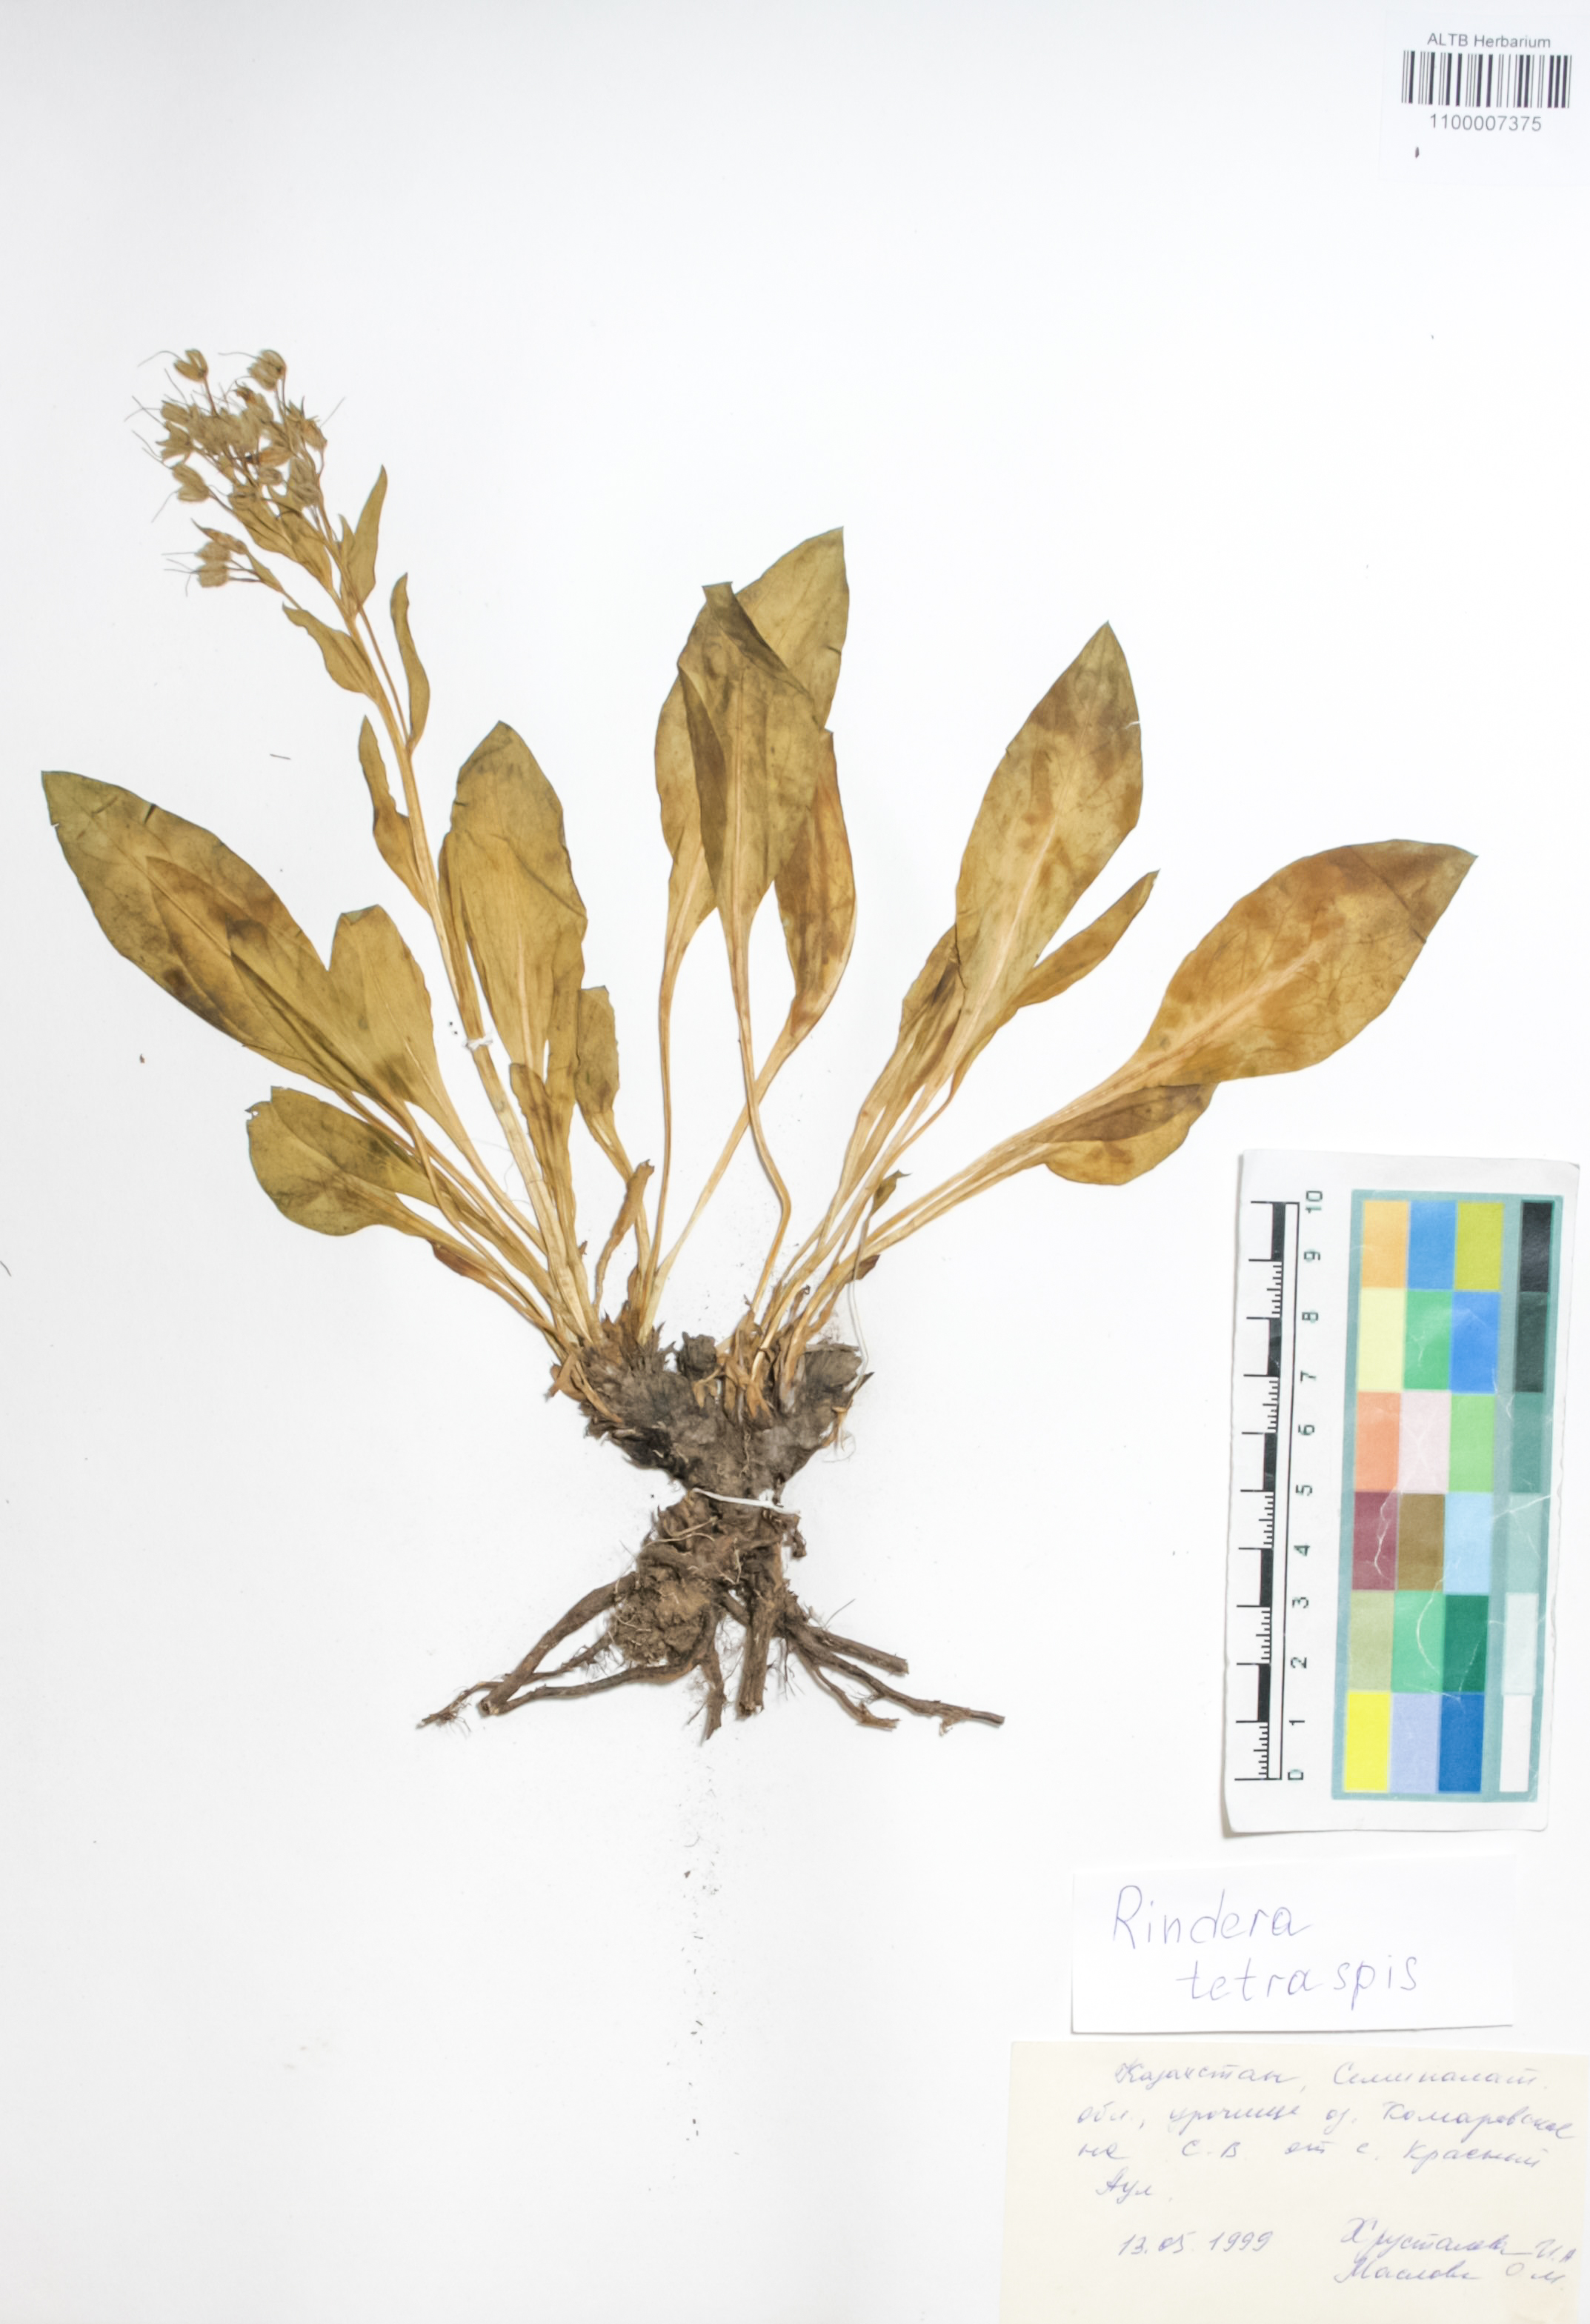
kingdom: Plantae
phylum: Tracheophyta
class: Magnoliopsida
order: Boraginales
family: Boraginaceae
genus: Rindera
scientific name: Rindera tetraspis
